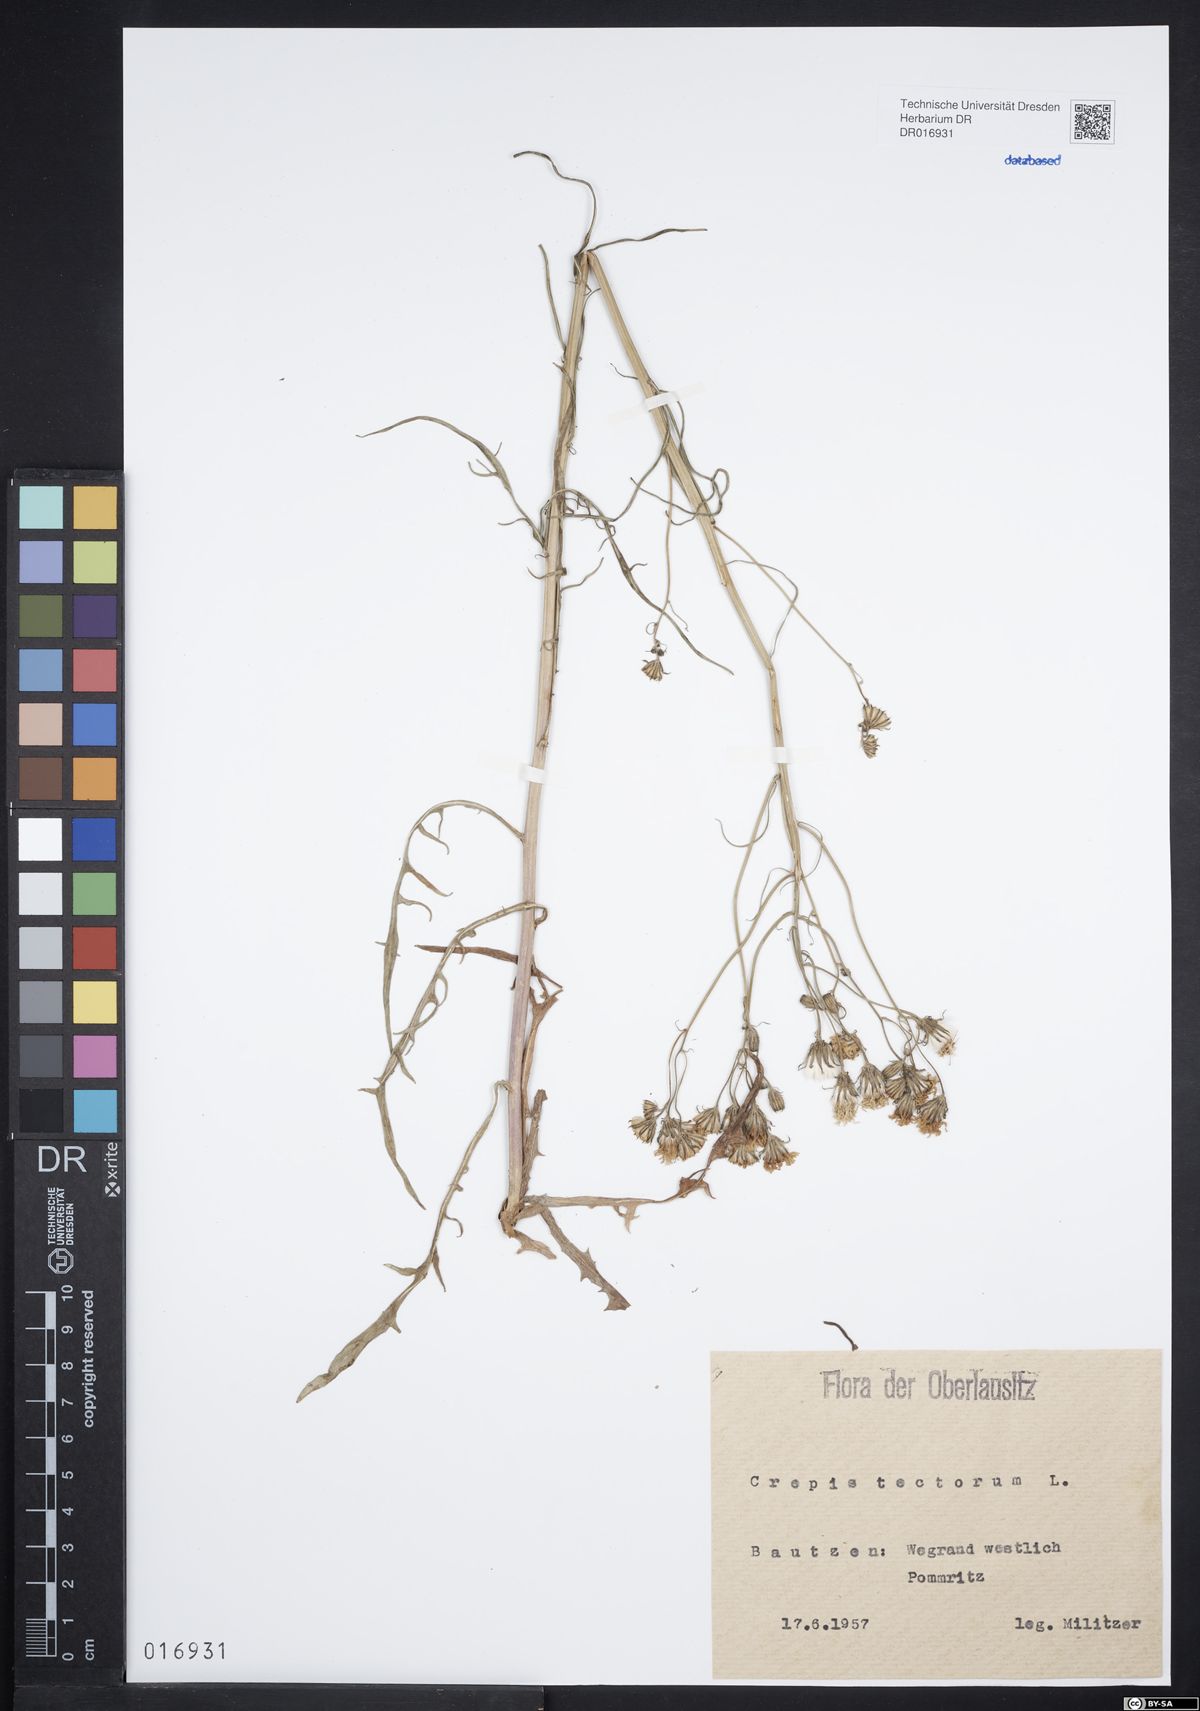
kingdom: Plantae
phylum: Tracheophyta
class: Magnoliopsida
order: Asterales
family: Asteraceae
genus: Crepis
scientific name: Crepis tectorum
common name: Narrow-leaved hawk's-beard
